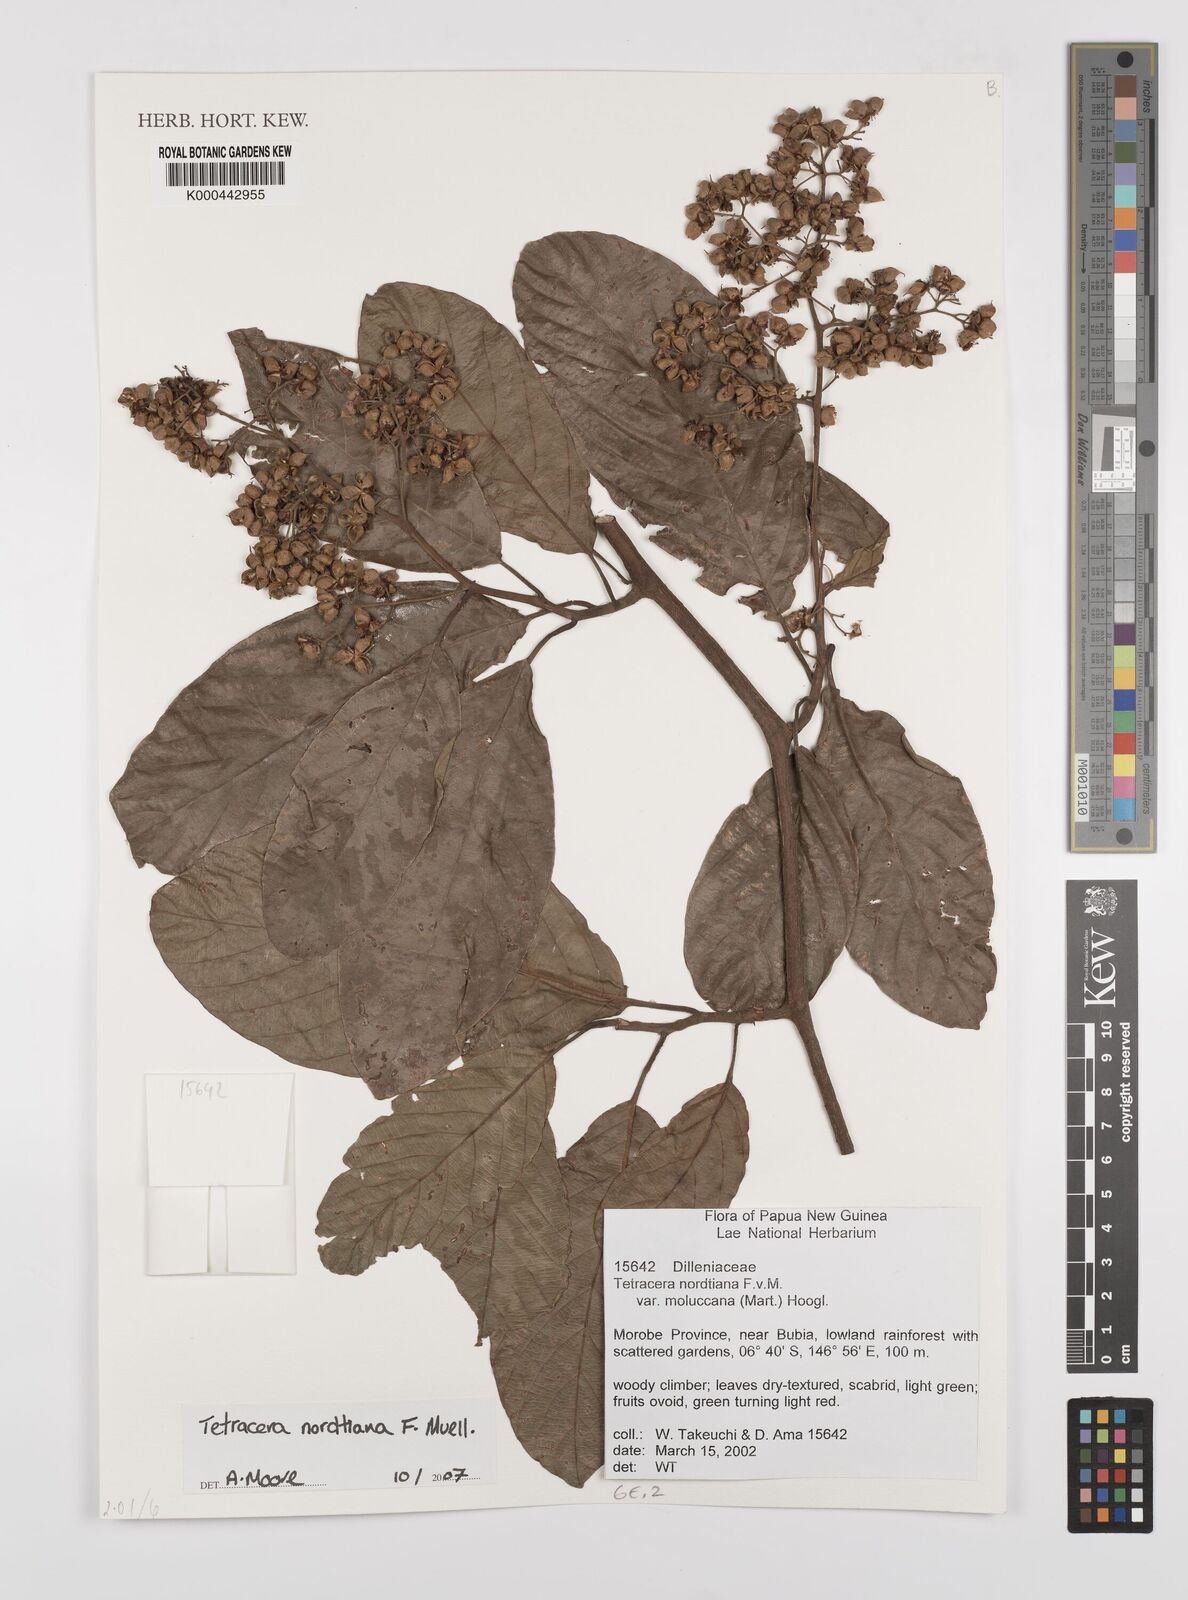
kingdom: Plantae
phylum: Tracheophyta
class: Magnoliopsida
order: Dilleniales
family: Dilleniaceae
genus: Tetracera
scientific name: Tetracera nordtiana
